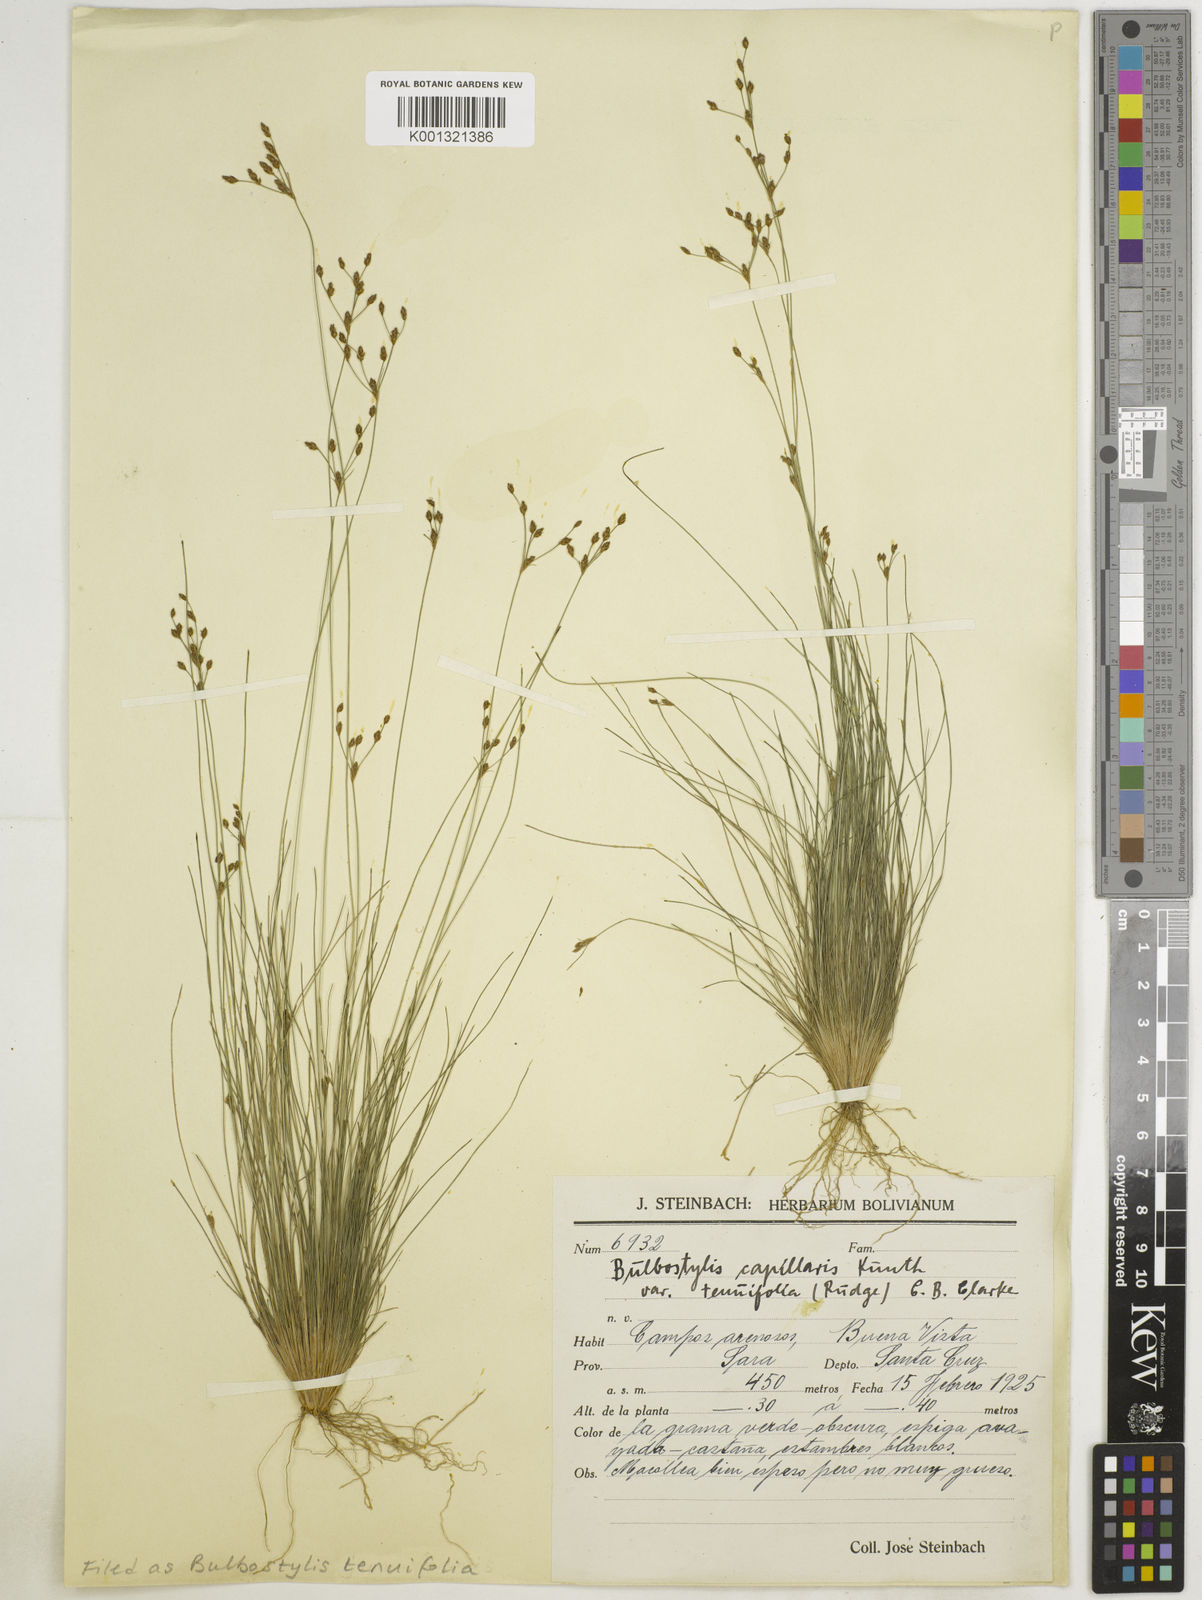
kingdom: Plantae
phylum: Tracheophyta
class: Liliopsida
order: Poales
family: Cyperaceae
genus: Bulbostylis
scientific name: Bulbostylis tenuifolia
